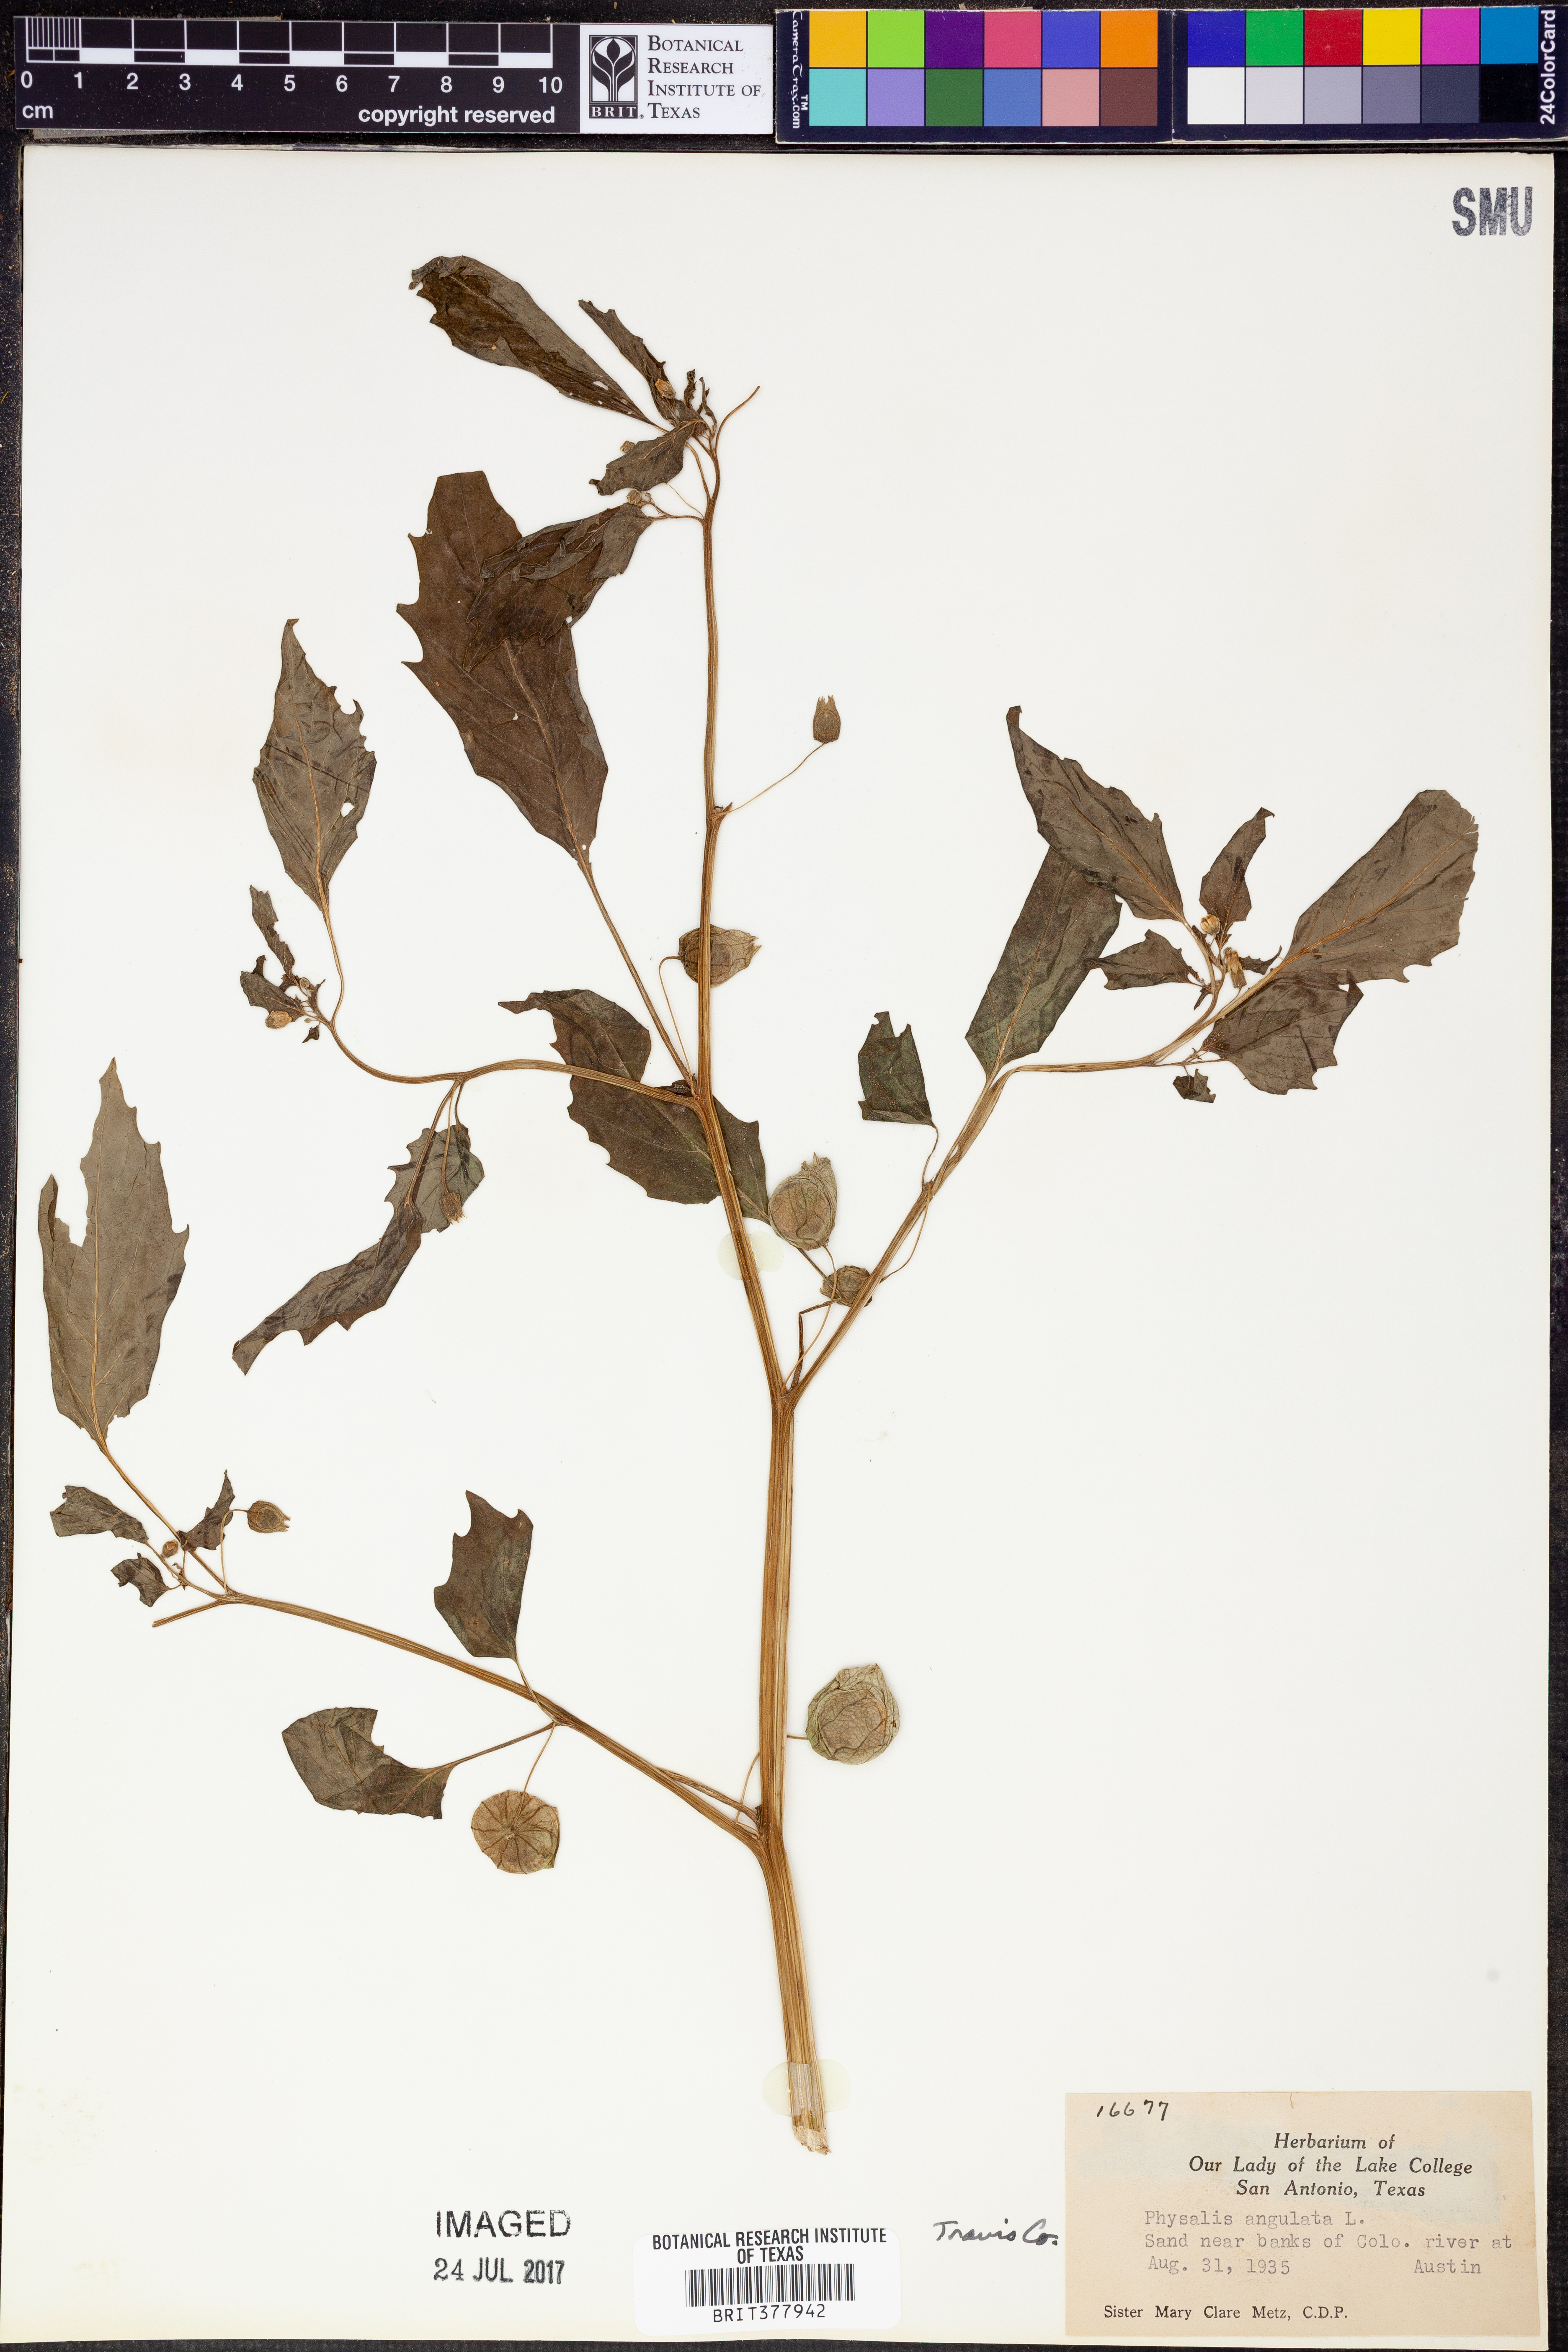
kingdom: Plantae
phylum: Tracheophyta
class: Magnoliopsida
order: Solanales
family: Solanaceae
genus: Physalis
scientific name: Physalis angulata
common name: Angular winter-cherry
